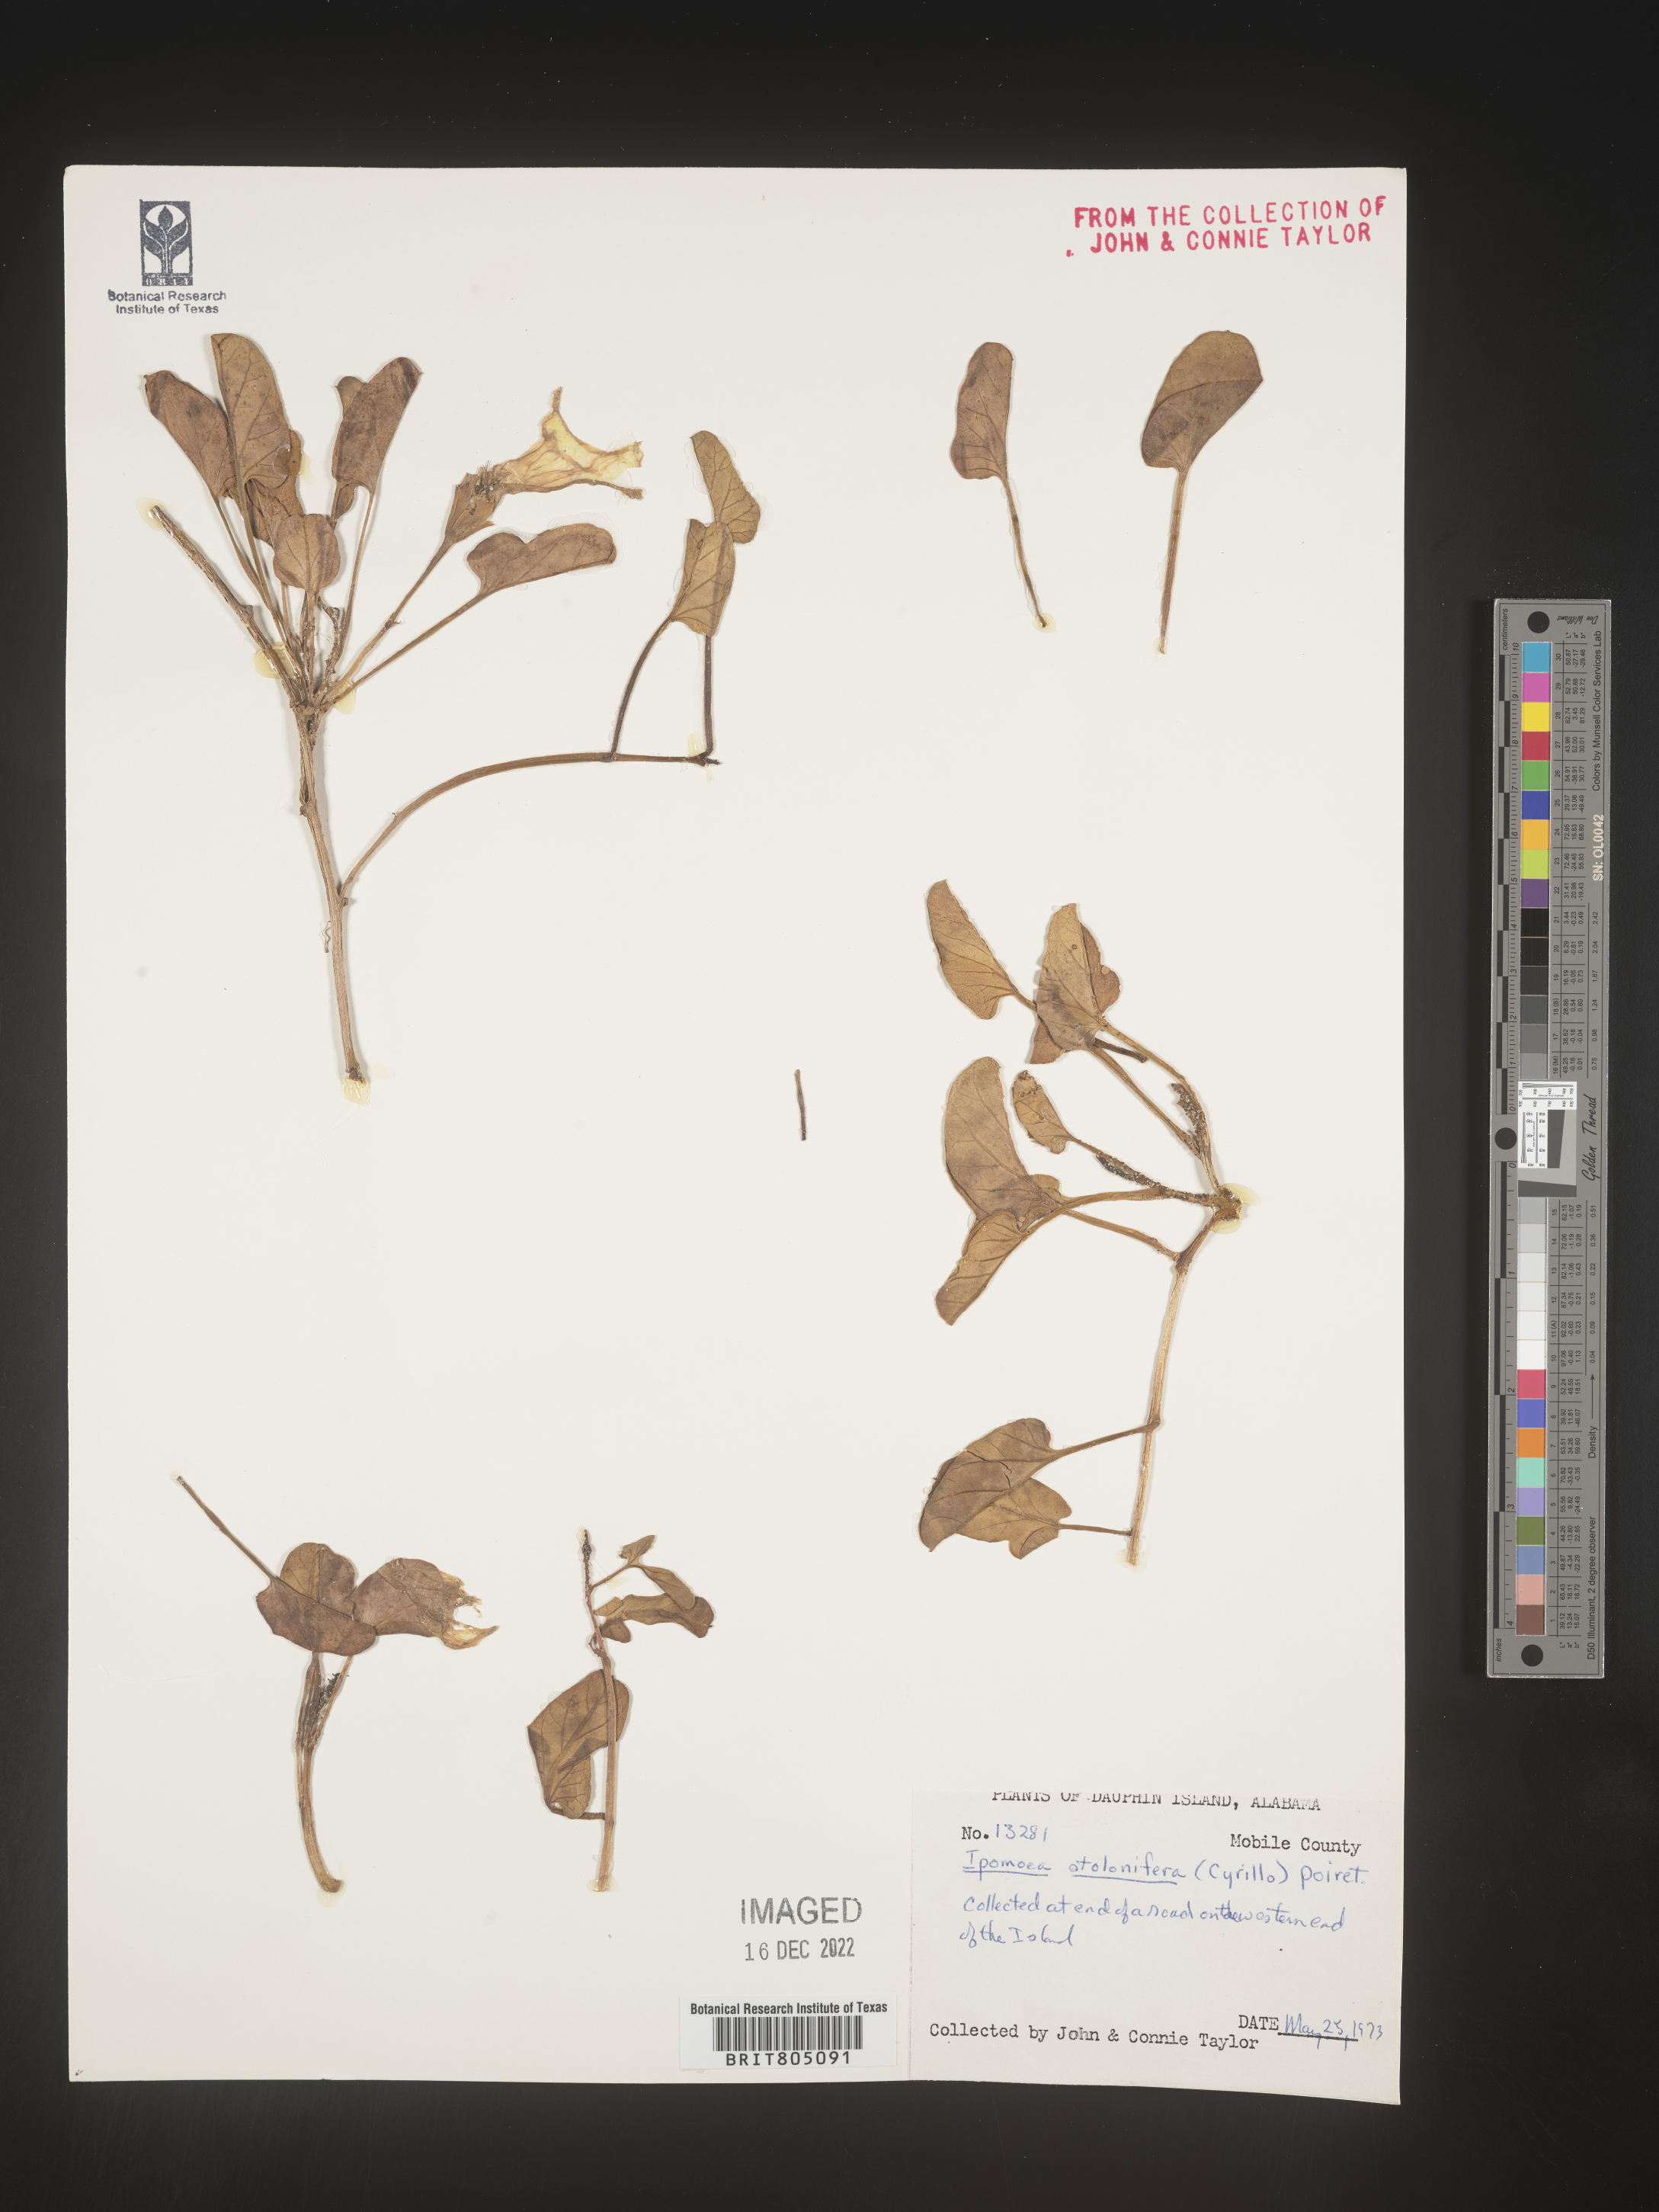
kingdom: Plantae
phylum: Tracheophyta
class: Magnoliopsida
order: Solanales
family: Convolvulaceae
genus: Ipomoea
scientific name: Ipomoea imperati
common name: Fiddle-leaf morning-glory
